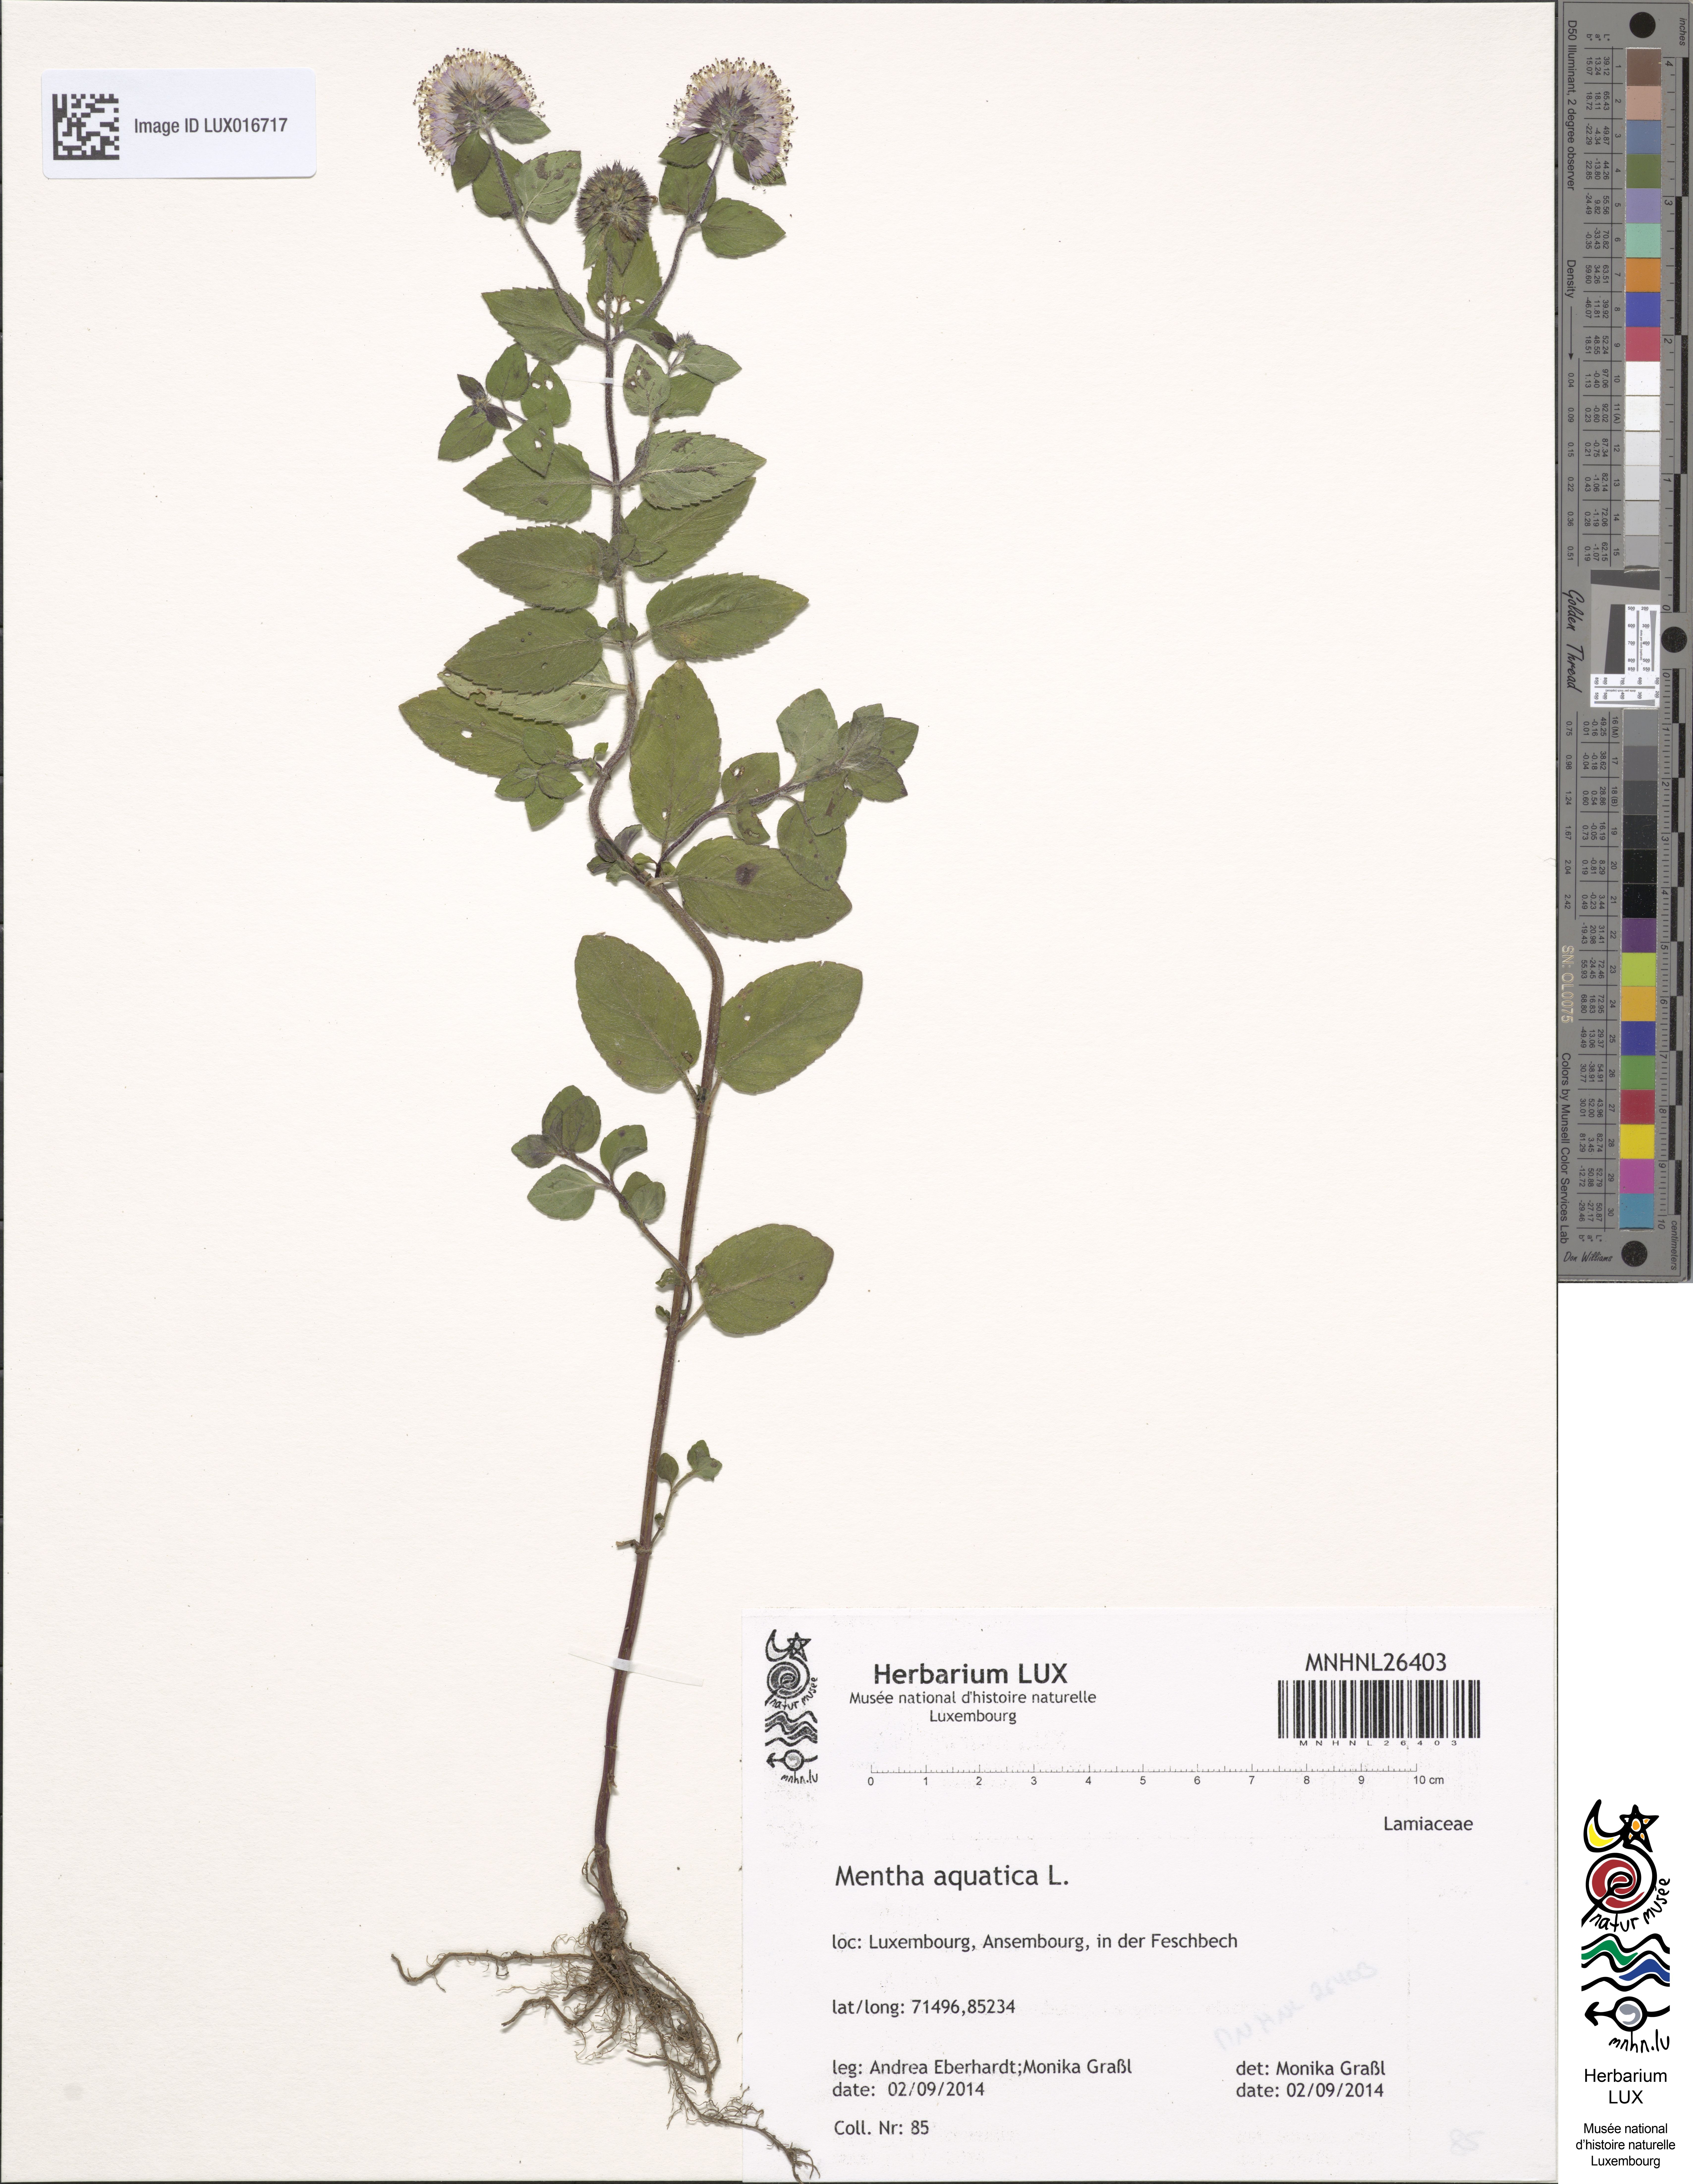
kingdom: Plantae
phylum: Tracheophyta
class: Magnoliopsida
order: Lamiales
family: Lamiaceae
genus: Mentha
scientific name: Mentha aquatica
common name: Water mint
